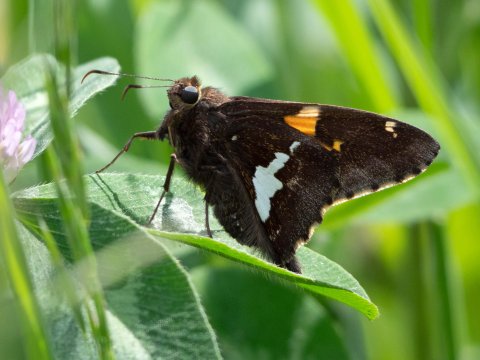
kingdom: Animalia
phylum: Arthropoda
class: Insecta
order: Lepidoptera
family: Hesperiidae
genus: Epargyreus
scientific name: Epargyreus clarus
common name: Silver-spotted Skipper
